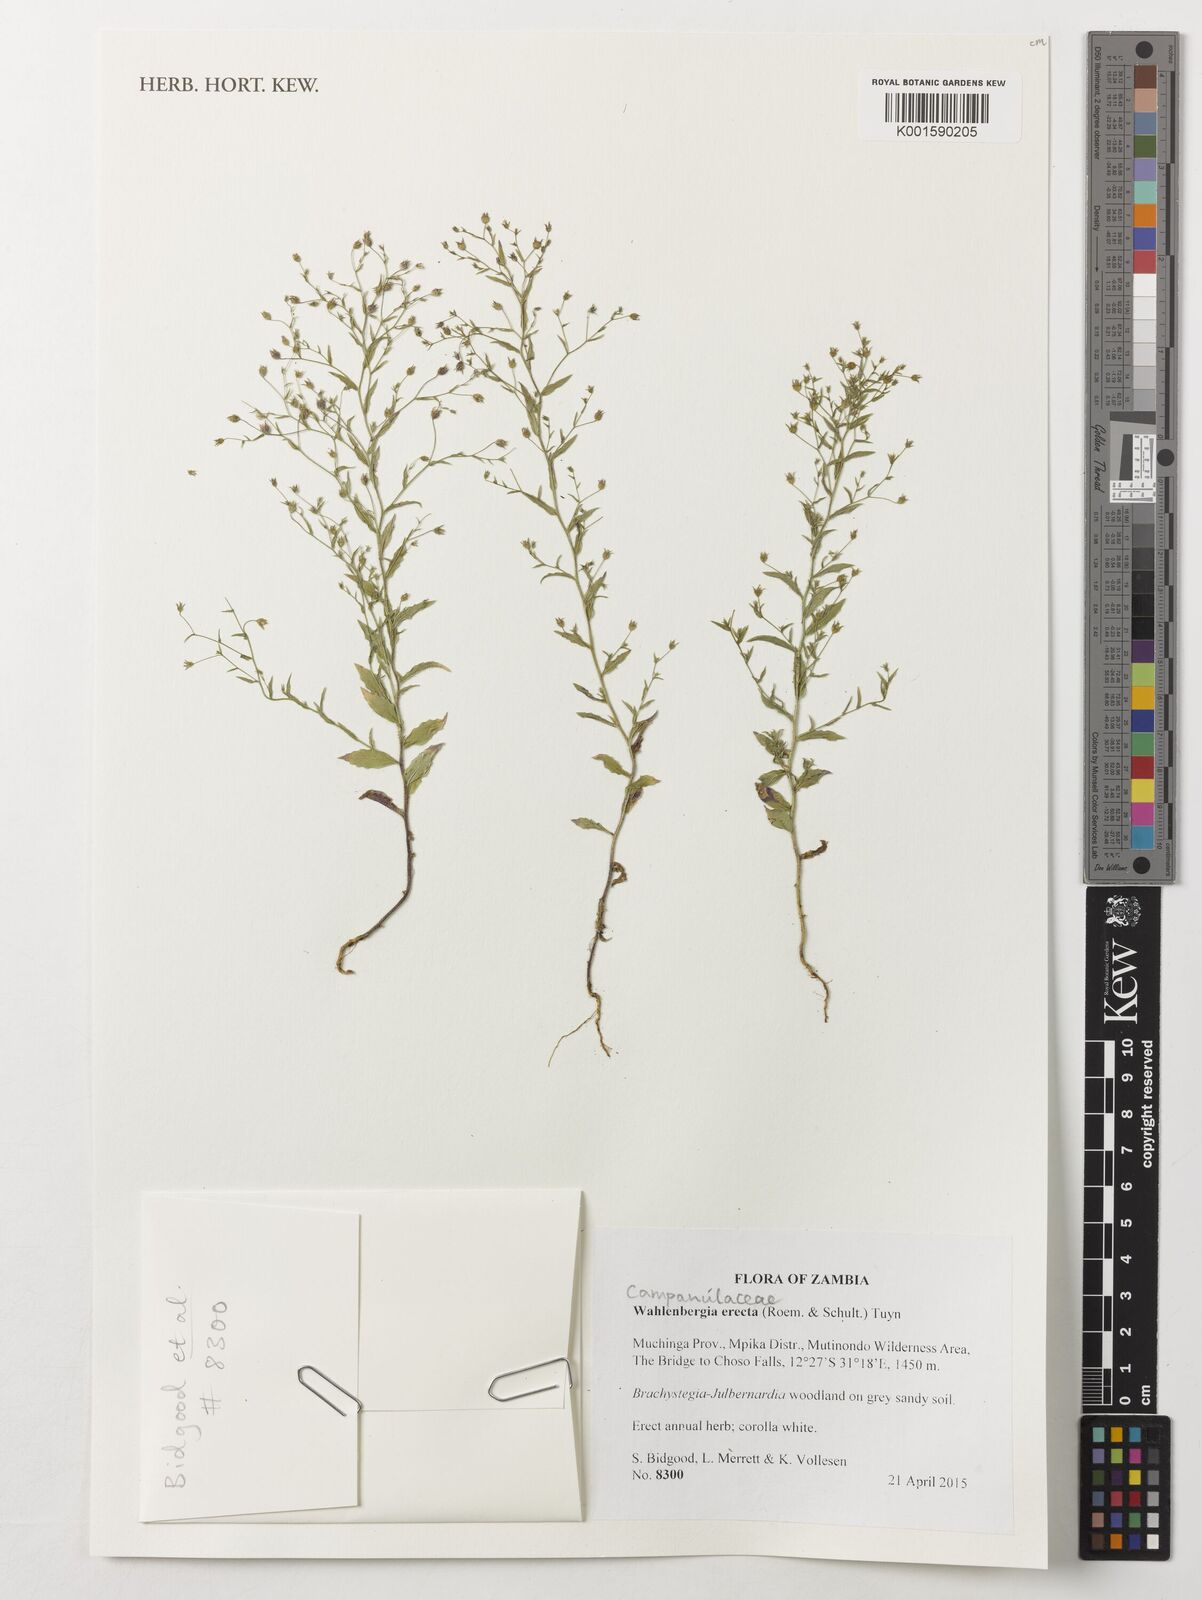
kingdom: Plantae
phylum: Tracheophyta
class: Magnoliopsida
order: Asterales
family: Campanulaceae
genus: Wahlenbergia
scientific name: Wahlenbergia erecta
